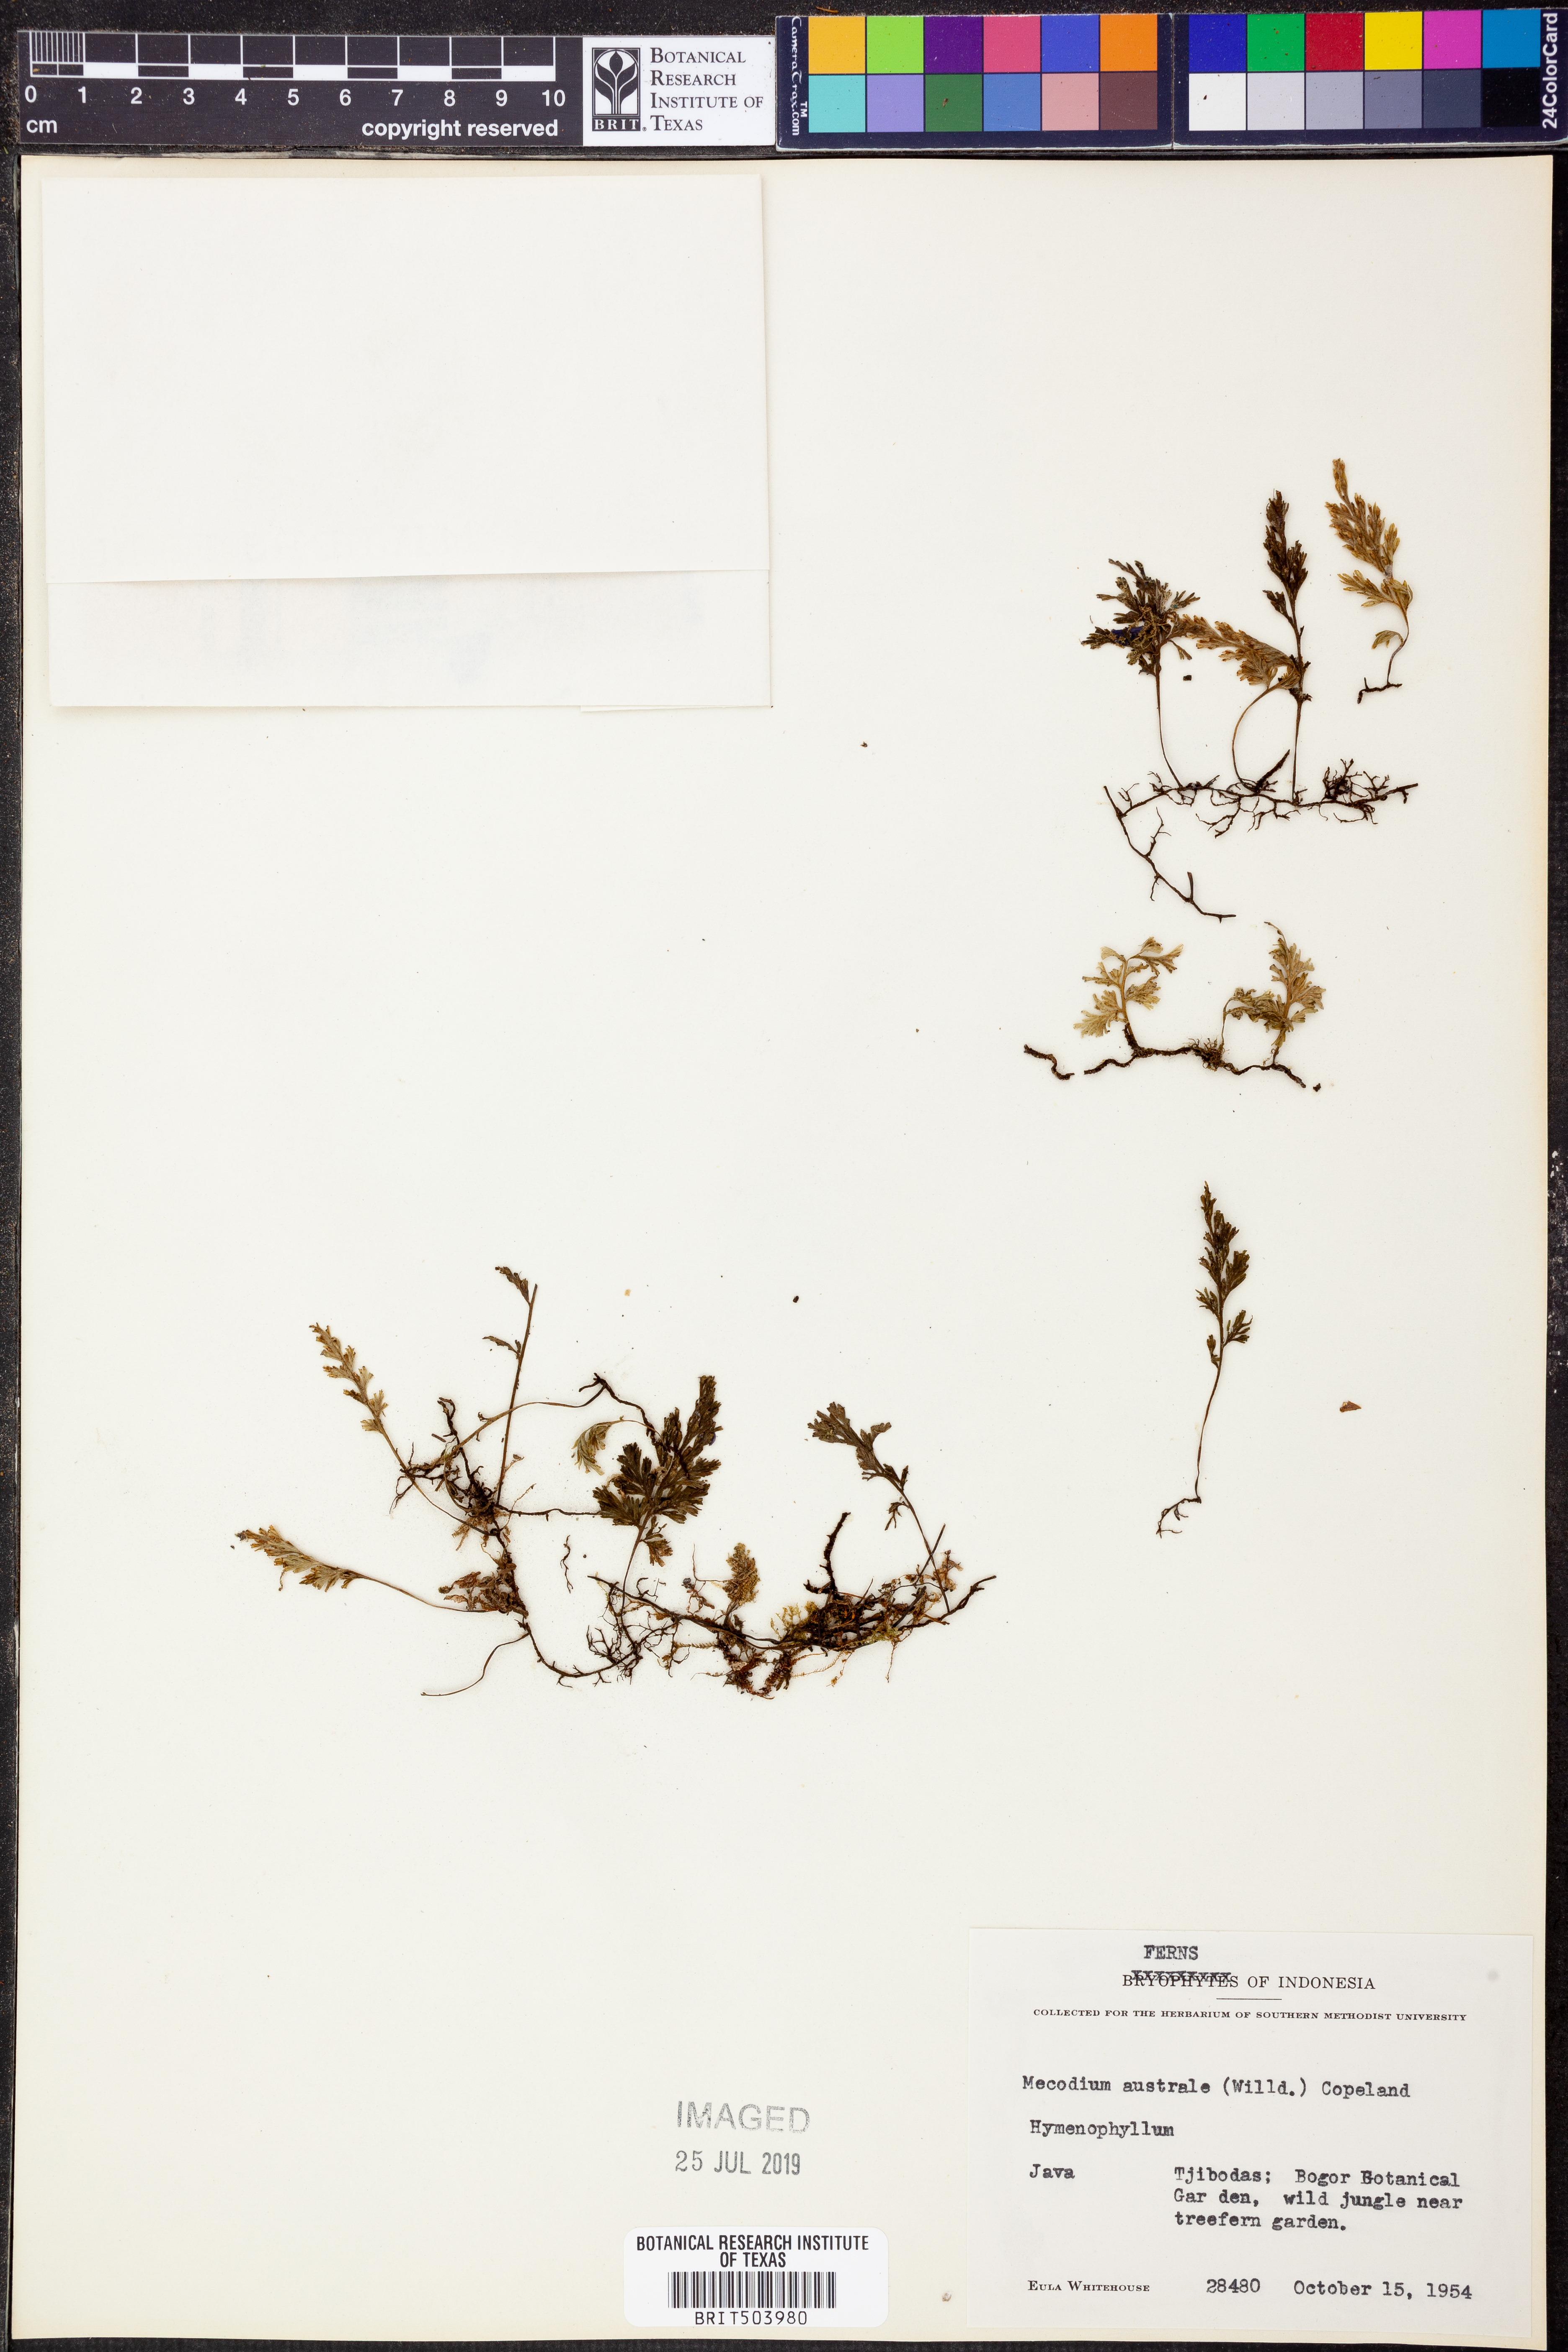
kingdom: Plantae
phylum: Tracheophyta
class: Polypodiopsida
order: Hymenophyllales
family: Hymenophyllaceae
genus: Hymenophyllum
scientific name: Hymenophyllum australe
